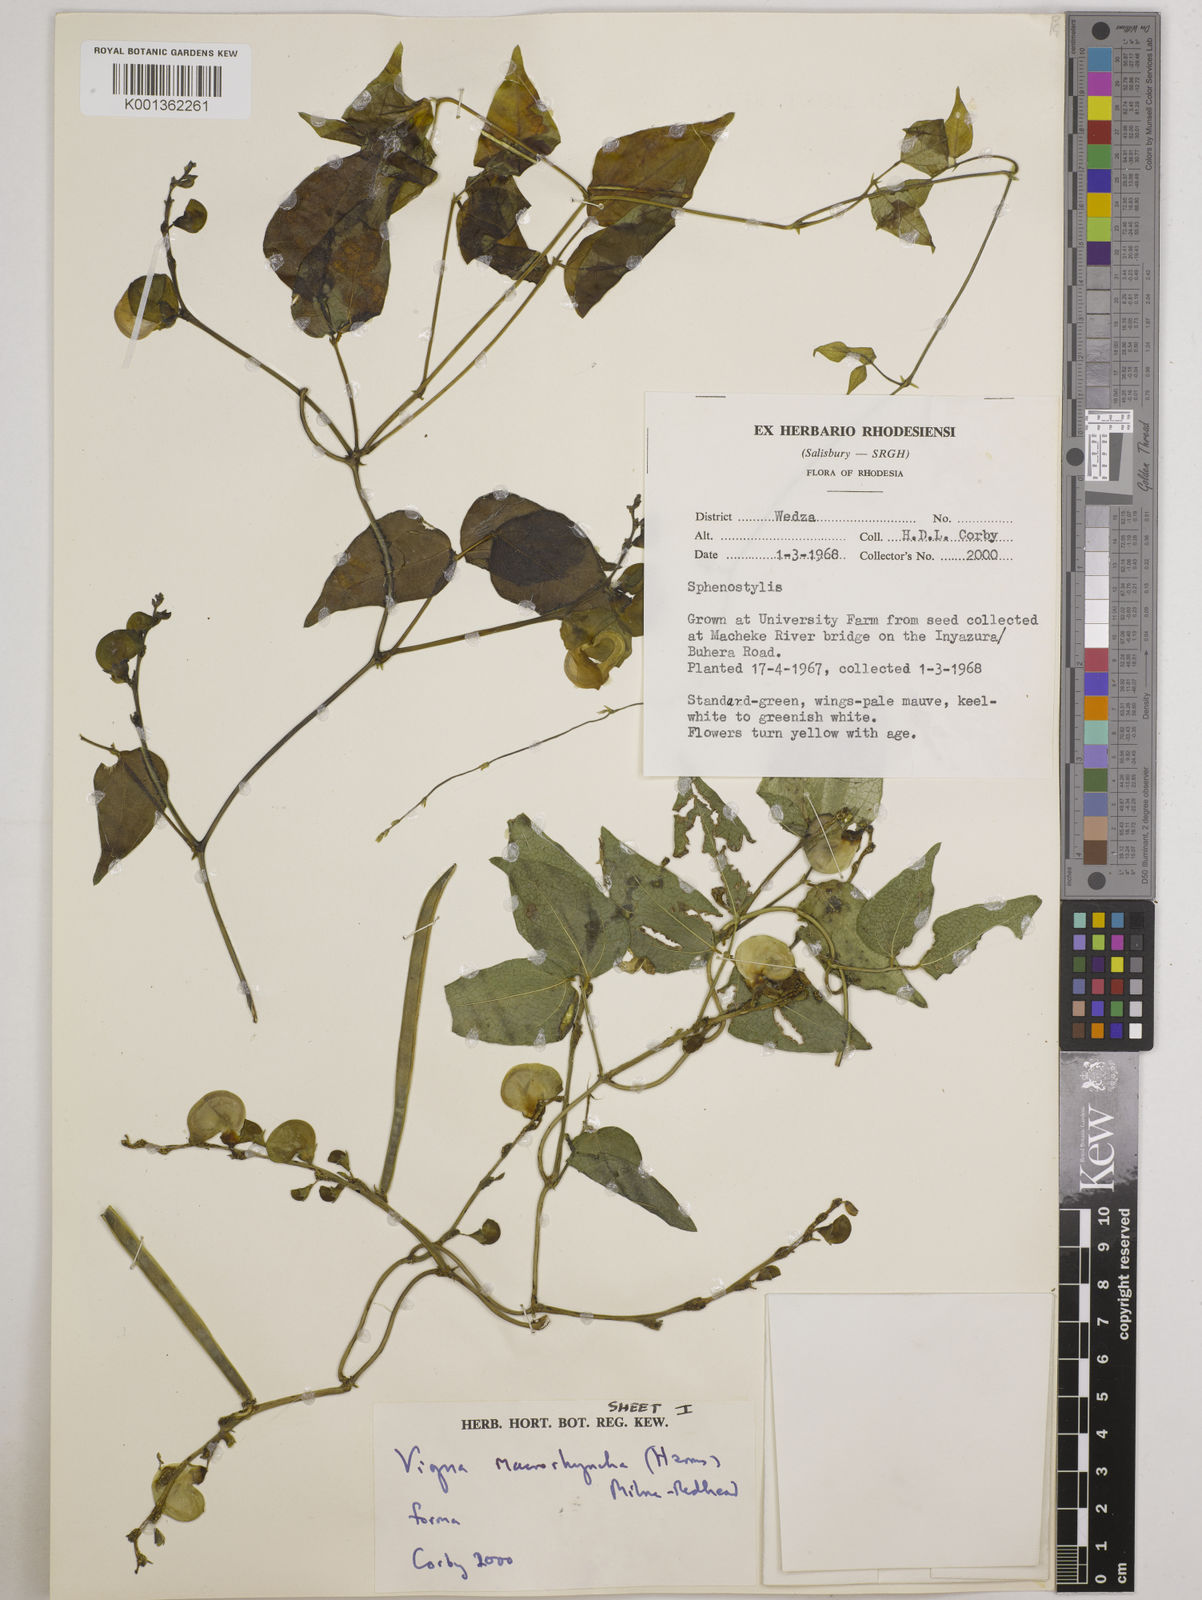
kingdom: Plantae
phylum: Tracheophyta
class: Magnoliopsida
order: Fabales
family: Fabaceae
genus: Wajira
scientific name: Wajira grahamiana
